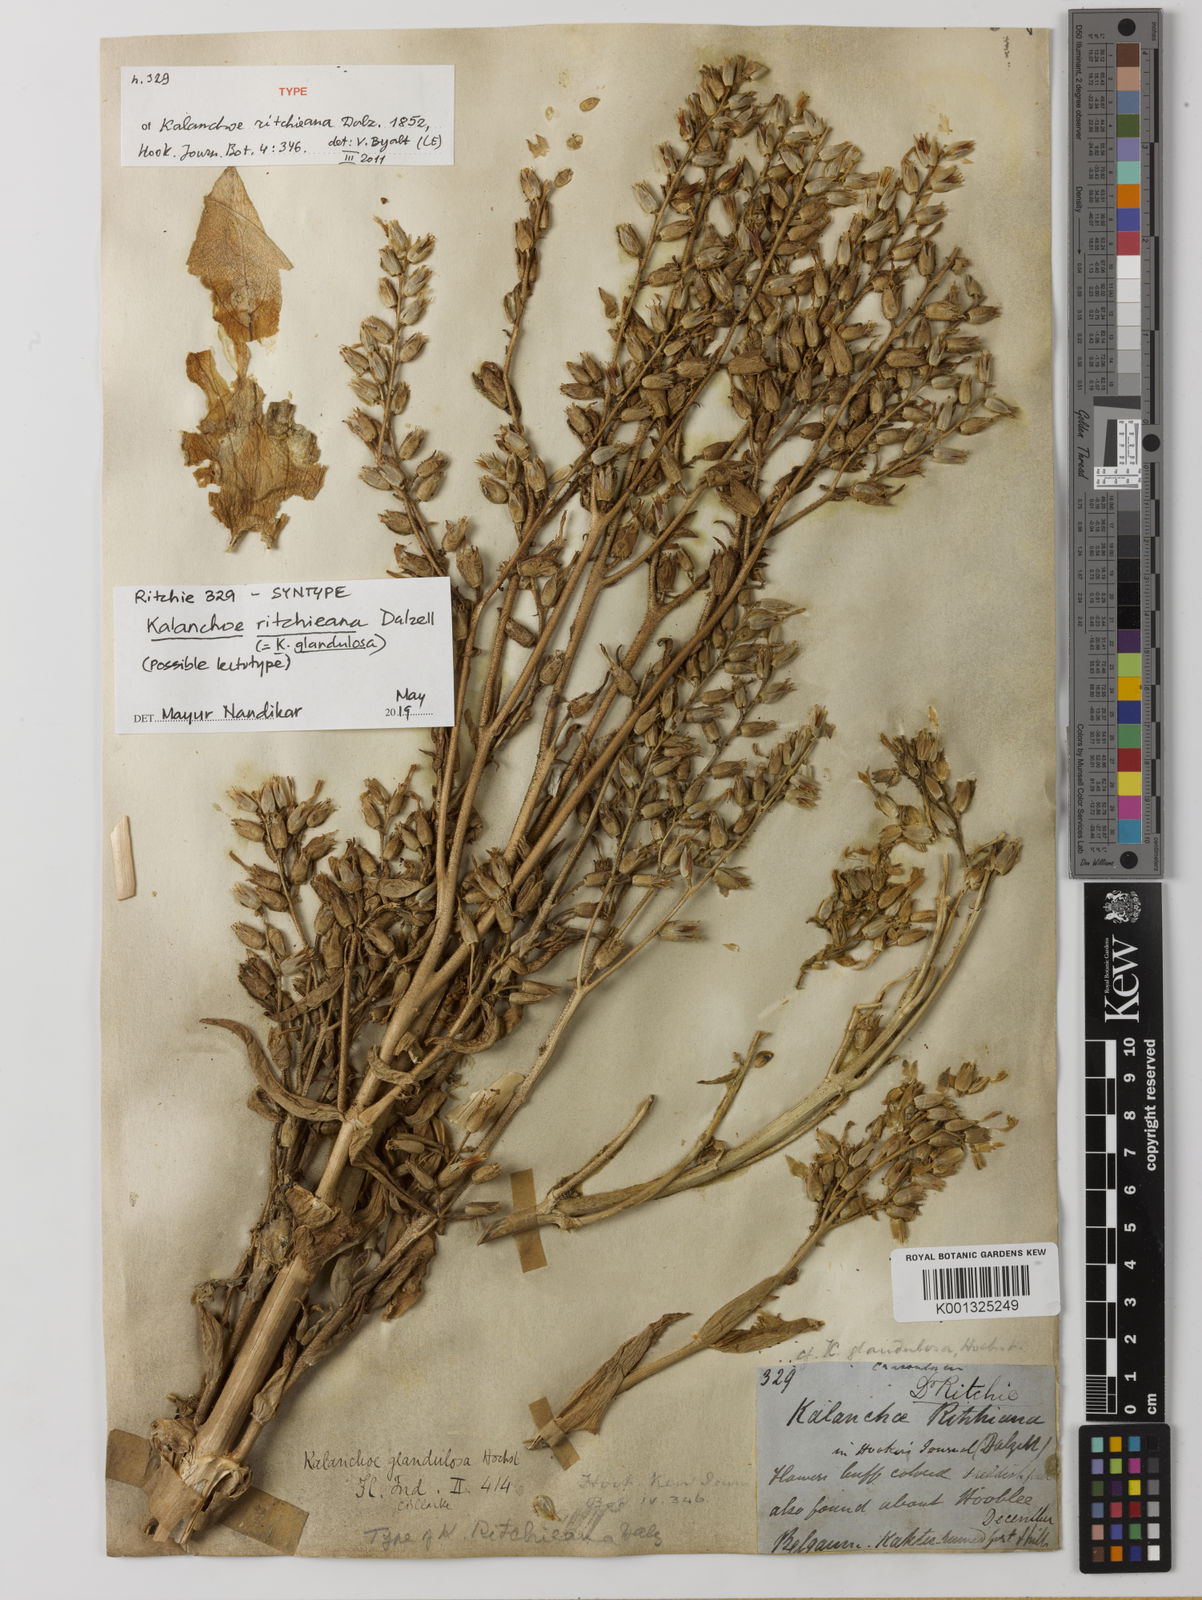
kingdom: Plantae
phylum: Tracheophyta
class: Magnoliopsida
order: Saxifragales
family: Crassulaceae
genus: Kalanchoe
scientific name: Kalanchoe lanceolata
